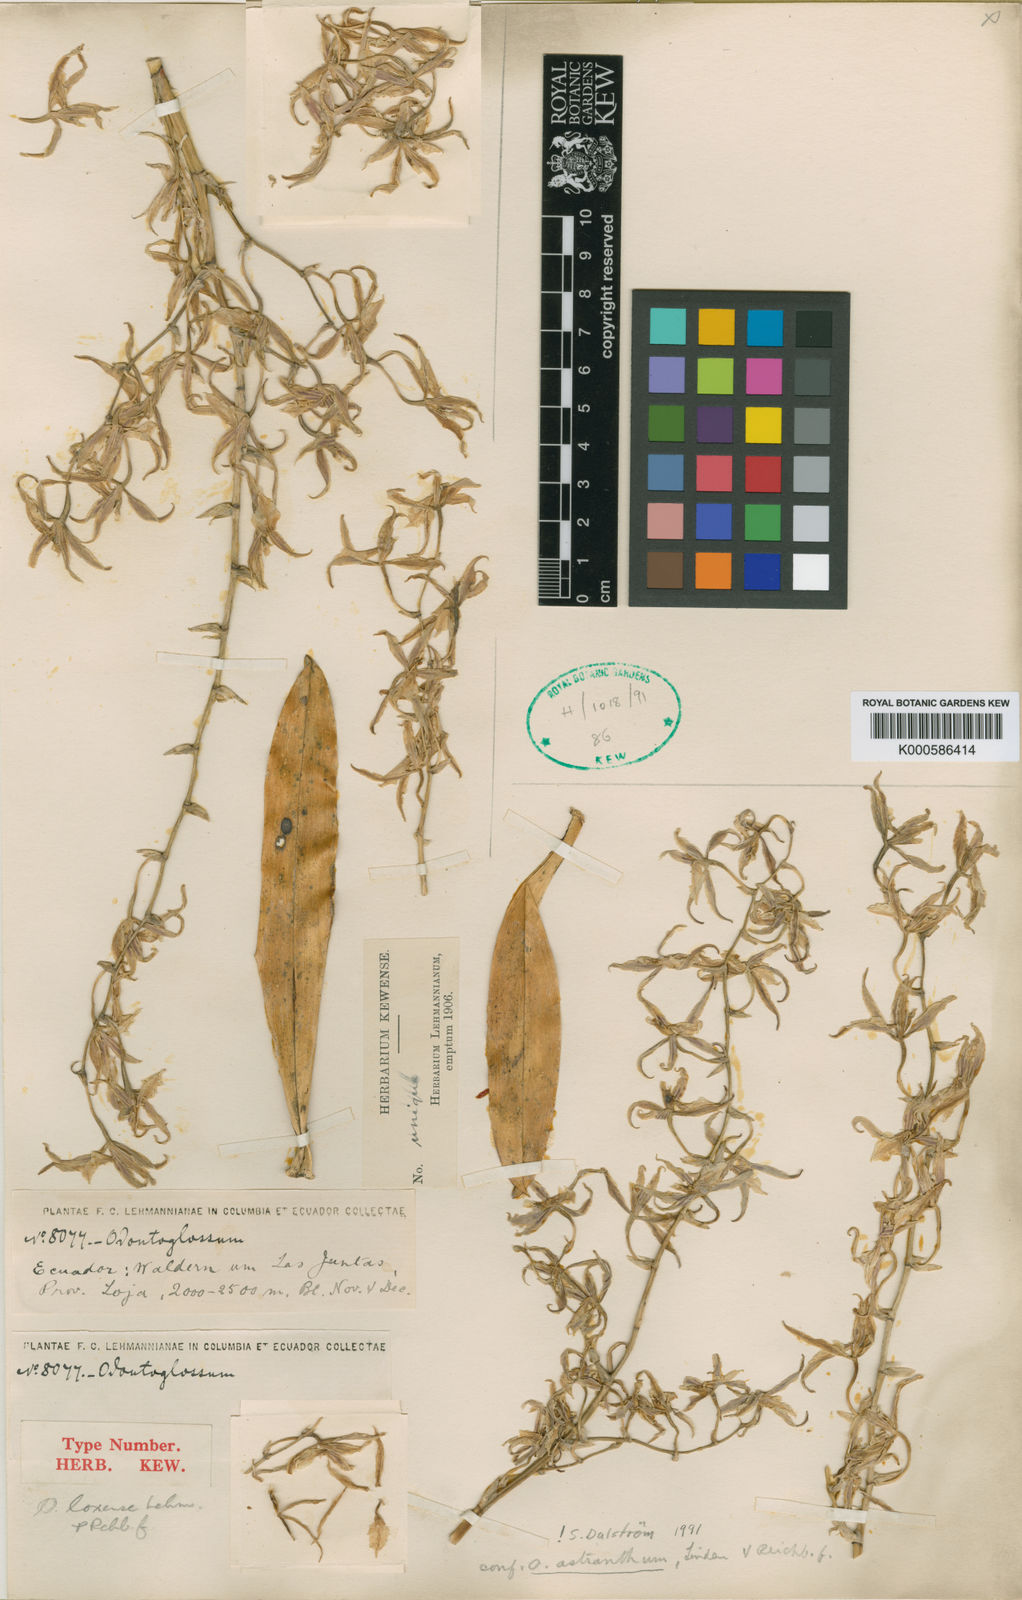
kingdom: Plantae
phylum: Tracheophyta
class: Liliopsida
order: Asparagales
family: Orchidaceae
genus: Oncidium
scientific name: Oncidium astranthum
